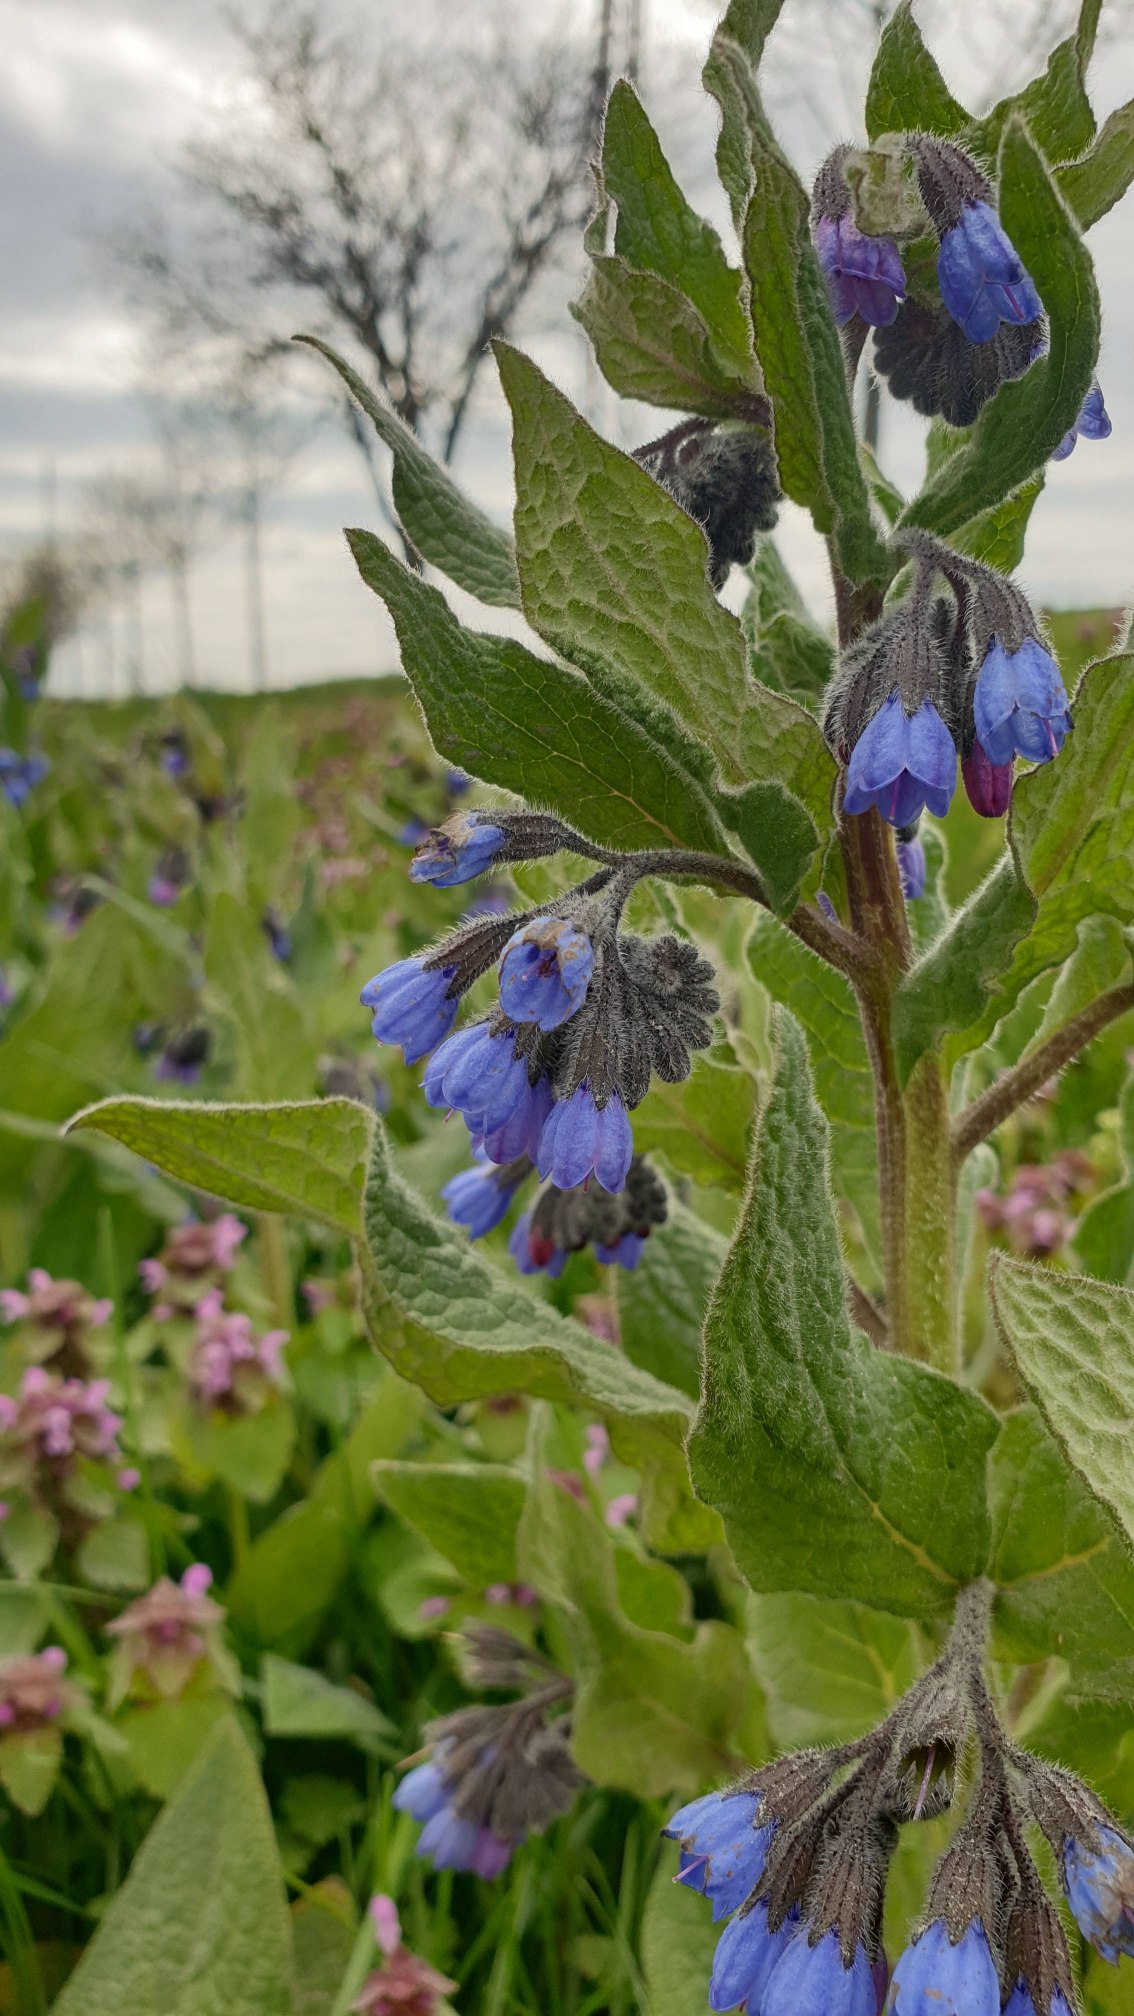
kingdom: Plantae
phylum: Tracheophyta
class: Magnoliopsida
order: Boraginales
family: Boraginaceae
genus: Symphytum
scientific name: Symphytum caucasicum
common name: Kaukasisk kulsukker
